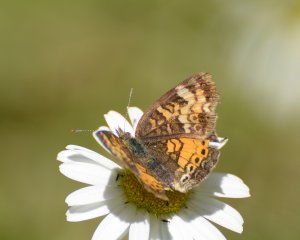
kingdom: Animalia
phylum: Arthropoda
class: Insecta
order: Lepidoptera
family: Nymphalidae
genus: Phyciodes
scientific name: Phyciodes tharos
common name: Northern Crescent
